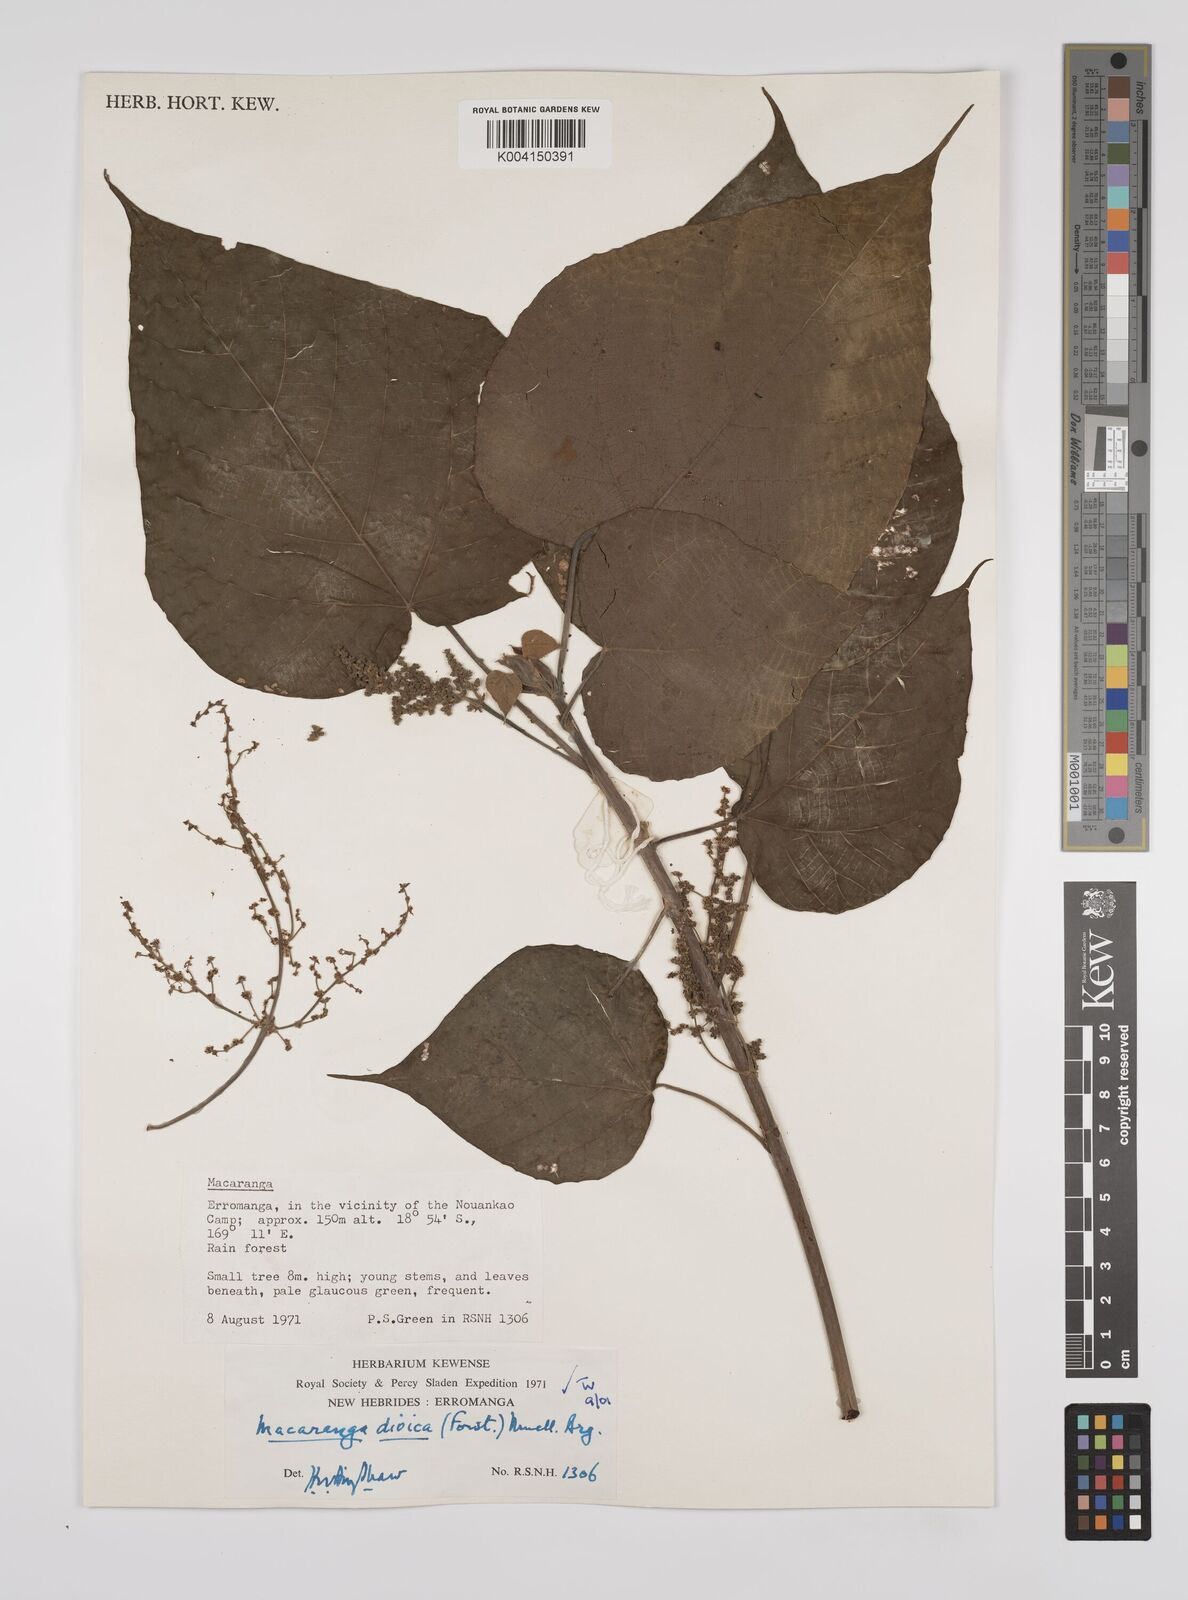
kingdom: Plantae
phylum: Tracheophyta
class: Magnoliopsida
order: Malpighiales
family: Euphorbiaceae
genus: Macaranga
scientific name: Macaranga dioica
